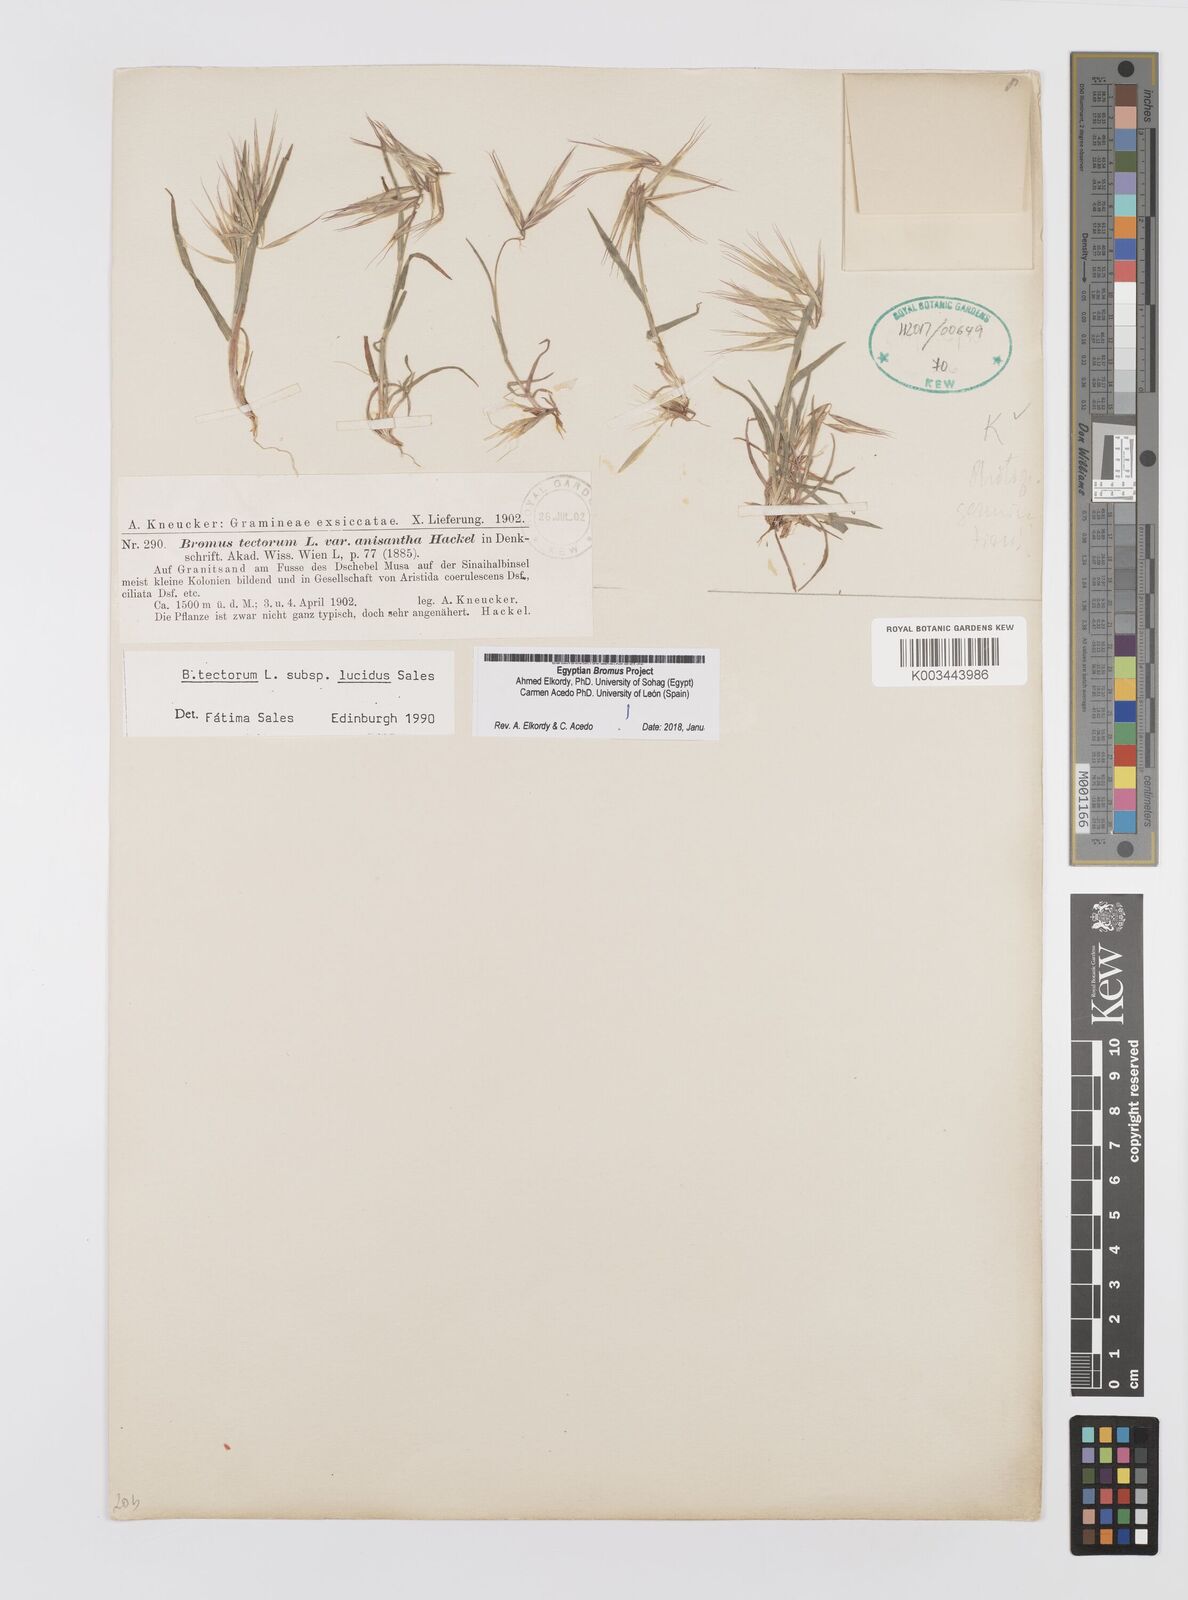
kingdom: Plantae
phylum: Tracheophyta
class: Liliopsida
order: Poales
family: Poaceae
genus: Bromus
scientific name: Bromus moeszii
